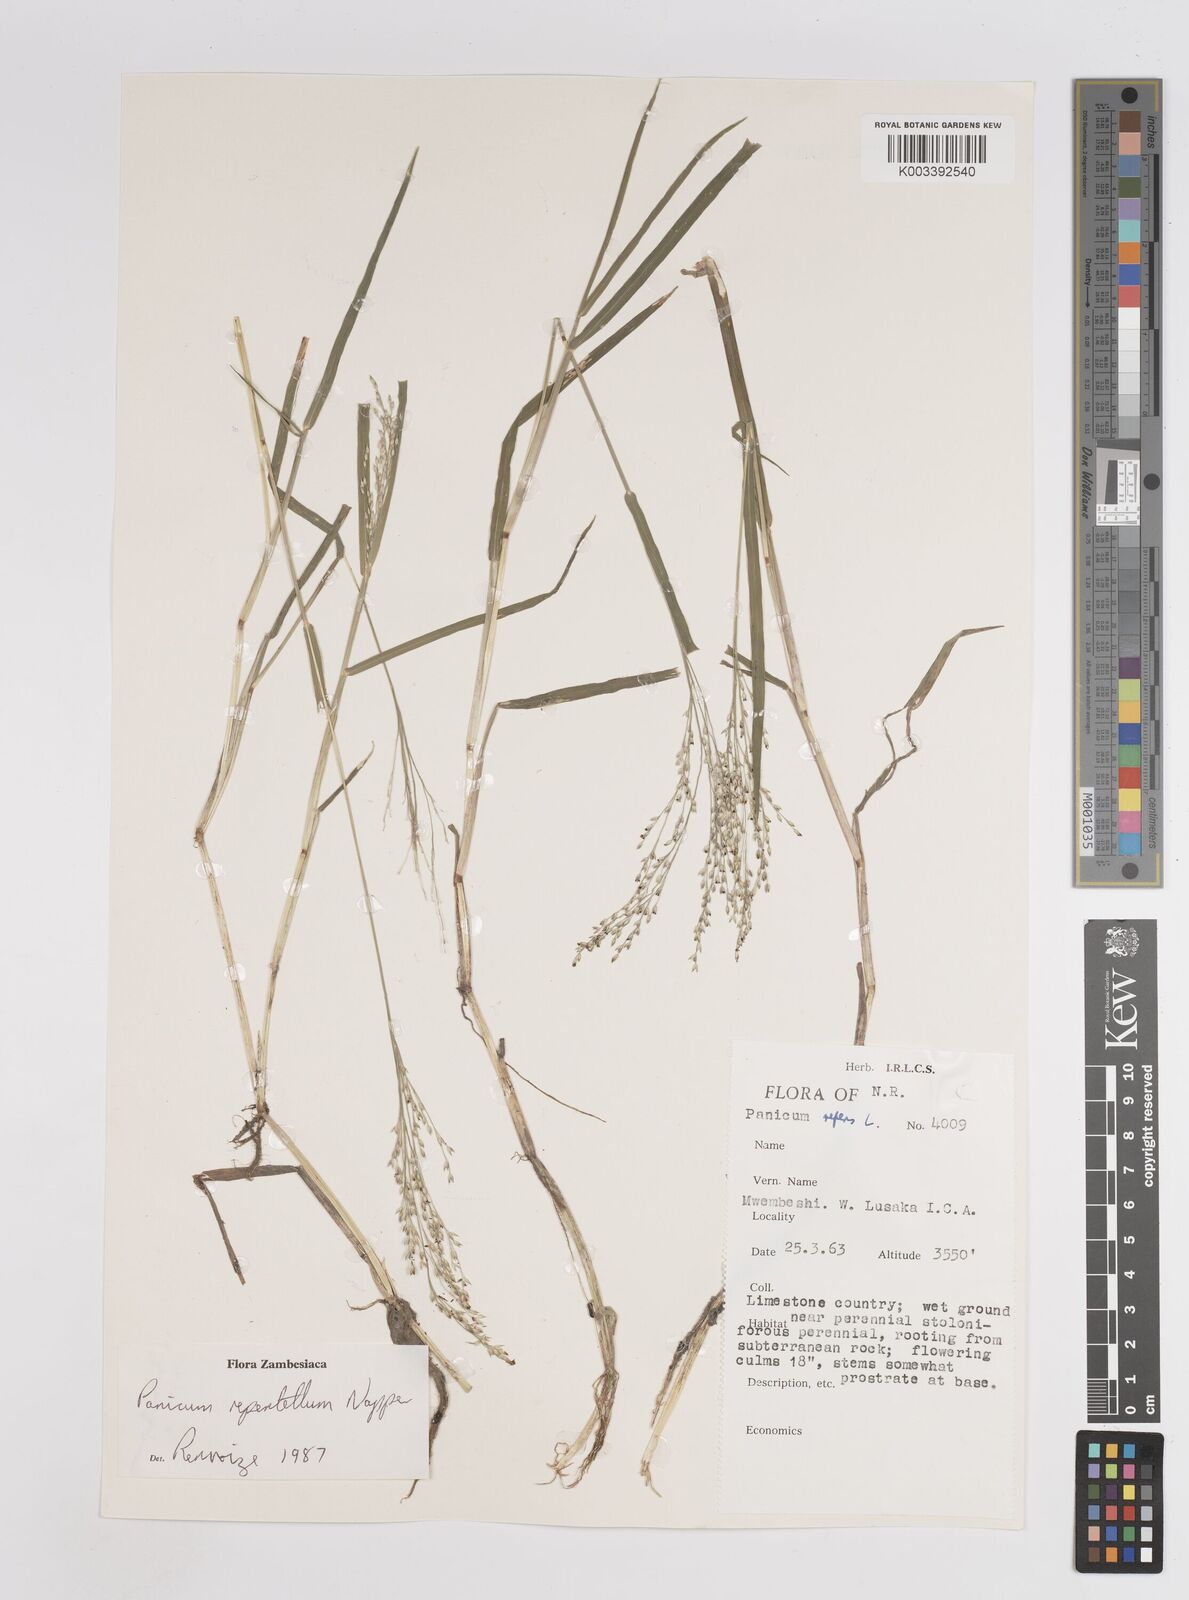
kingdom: Plantae
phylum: Tracheophyta
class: Liliopsida
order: Poales
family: Poaceae
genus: Panicum
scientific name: Panicum hygrocharis
